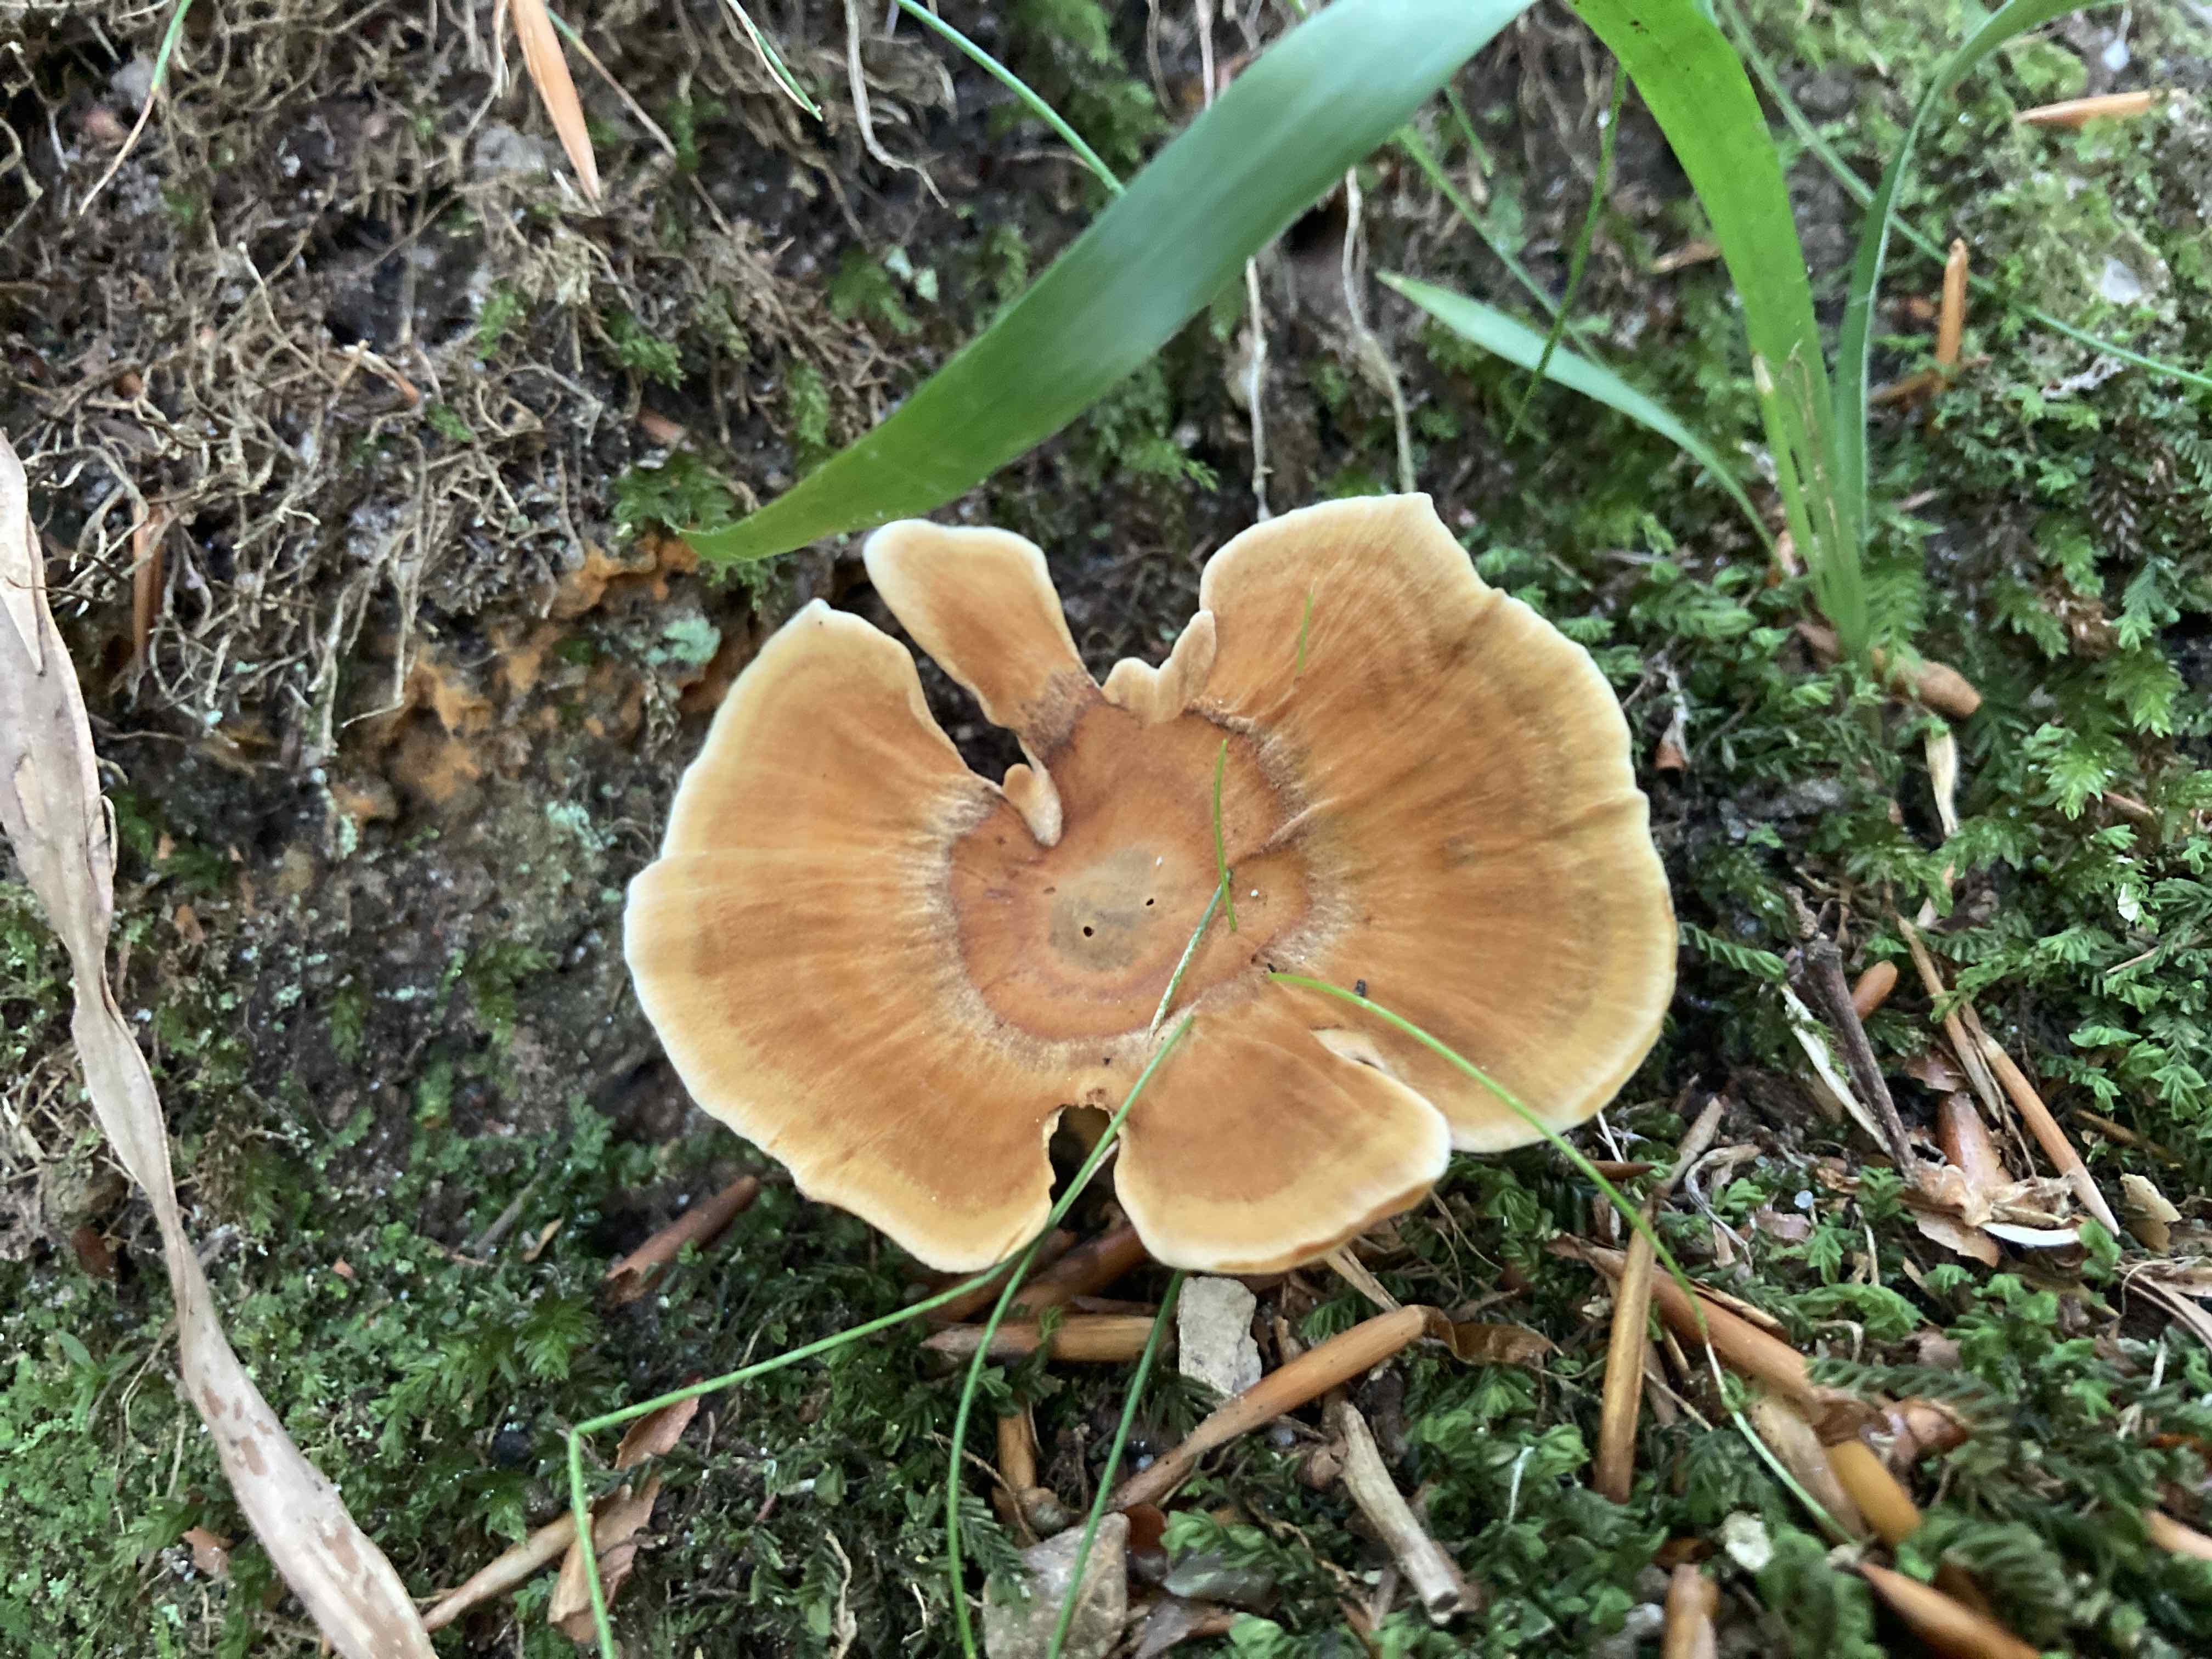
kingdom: Fungi
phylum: Basidiomycota
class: Agaricomycetes
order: Hymenochaetales
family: Hymenochaetaceae
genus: Coltricia
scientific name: Coltricia perennis
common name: almindelig sandporesvamp
